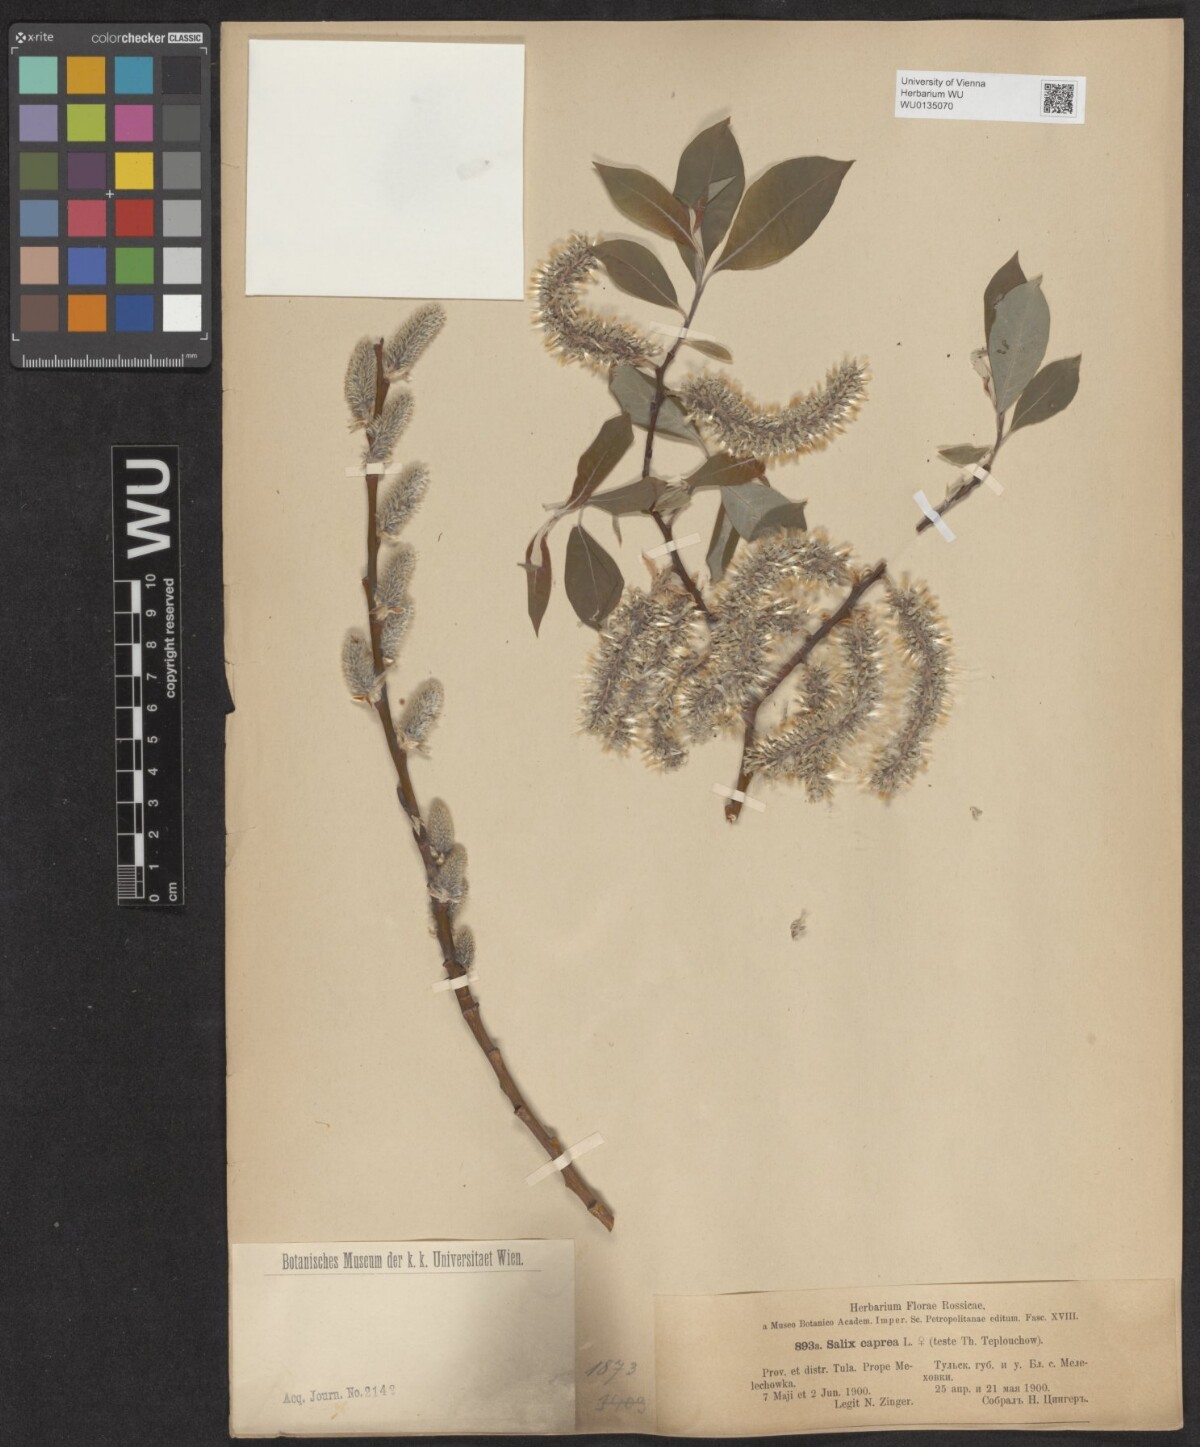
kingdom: Plantae
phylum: Tracheophyta
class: Magnoliopsida
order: Malpighiales
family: Salicaceae
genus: Salix
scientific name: Salix caprea
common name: Goat willow
